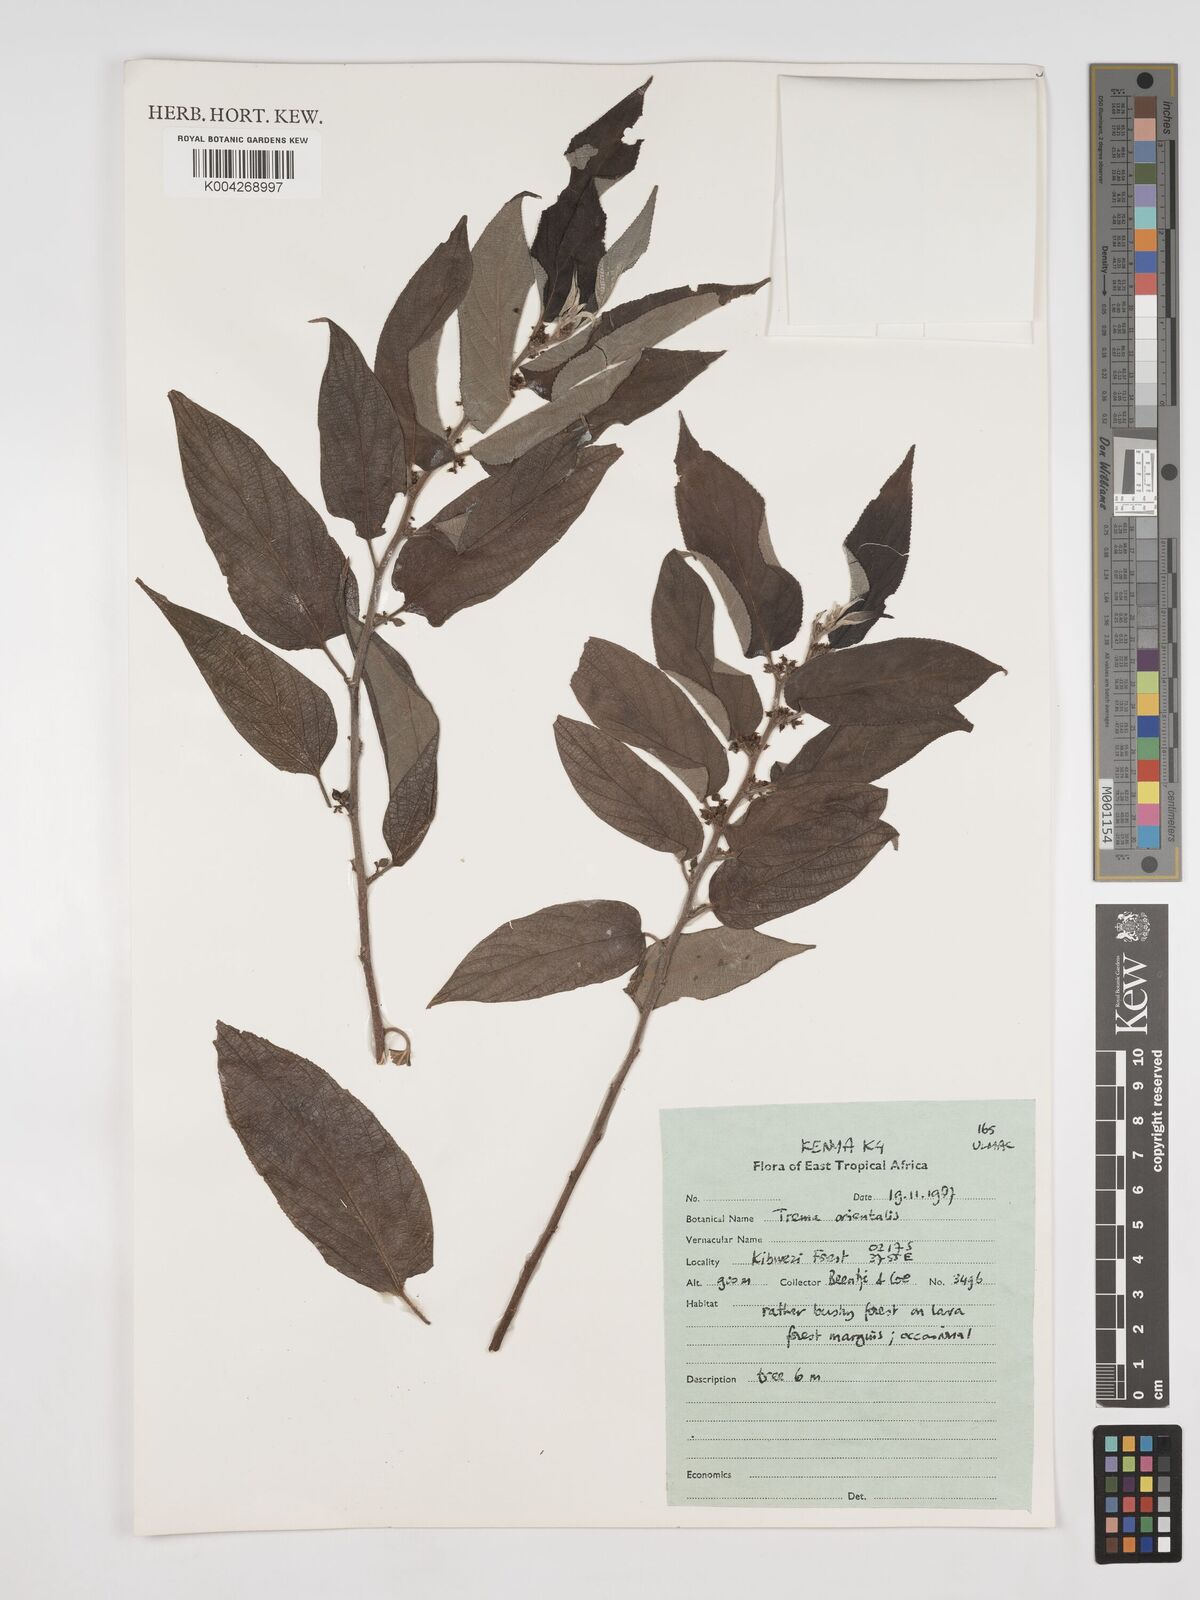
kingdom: Plantae
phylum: Tracheophyta
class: Magnoliopsida
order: Rosales
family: Cannabaceae
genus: Trema
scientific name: Trema orientale
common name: Indian charcoal tree
